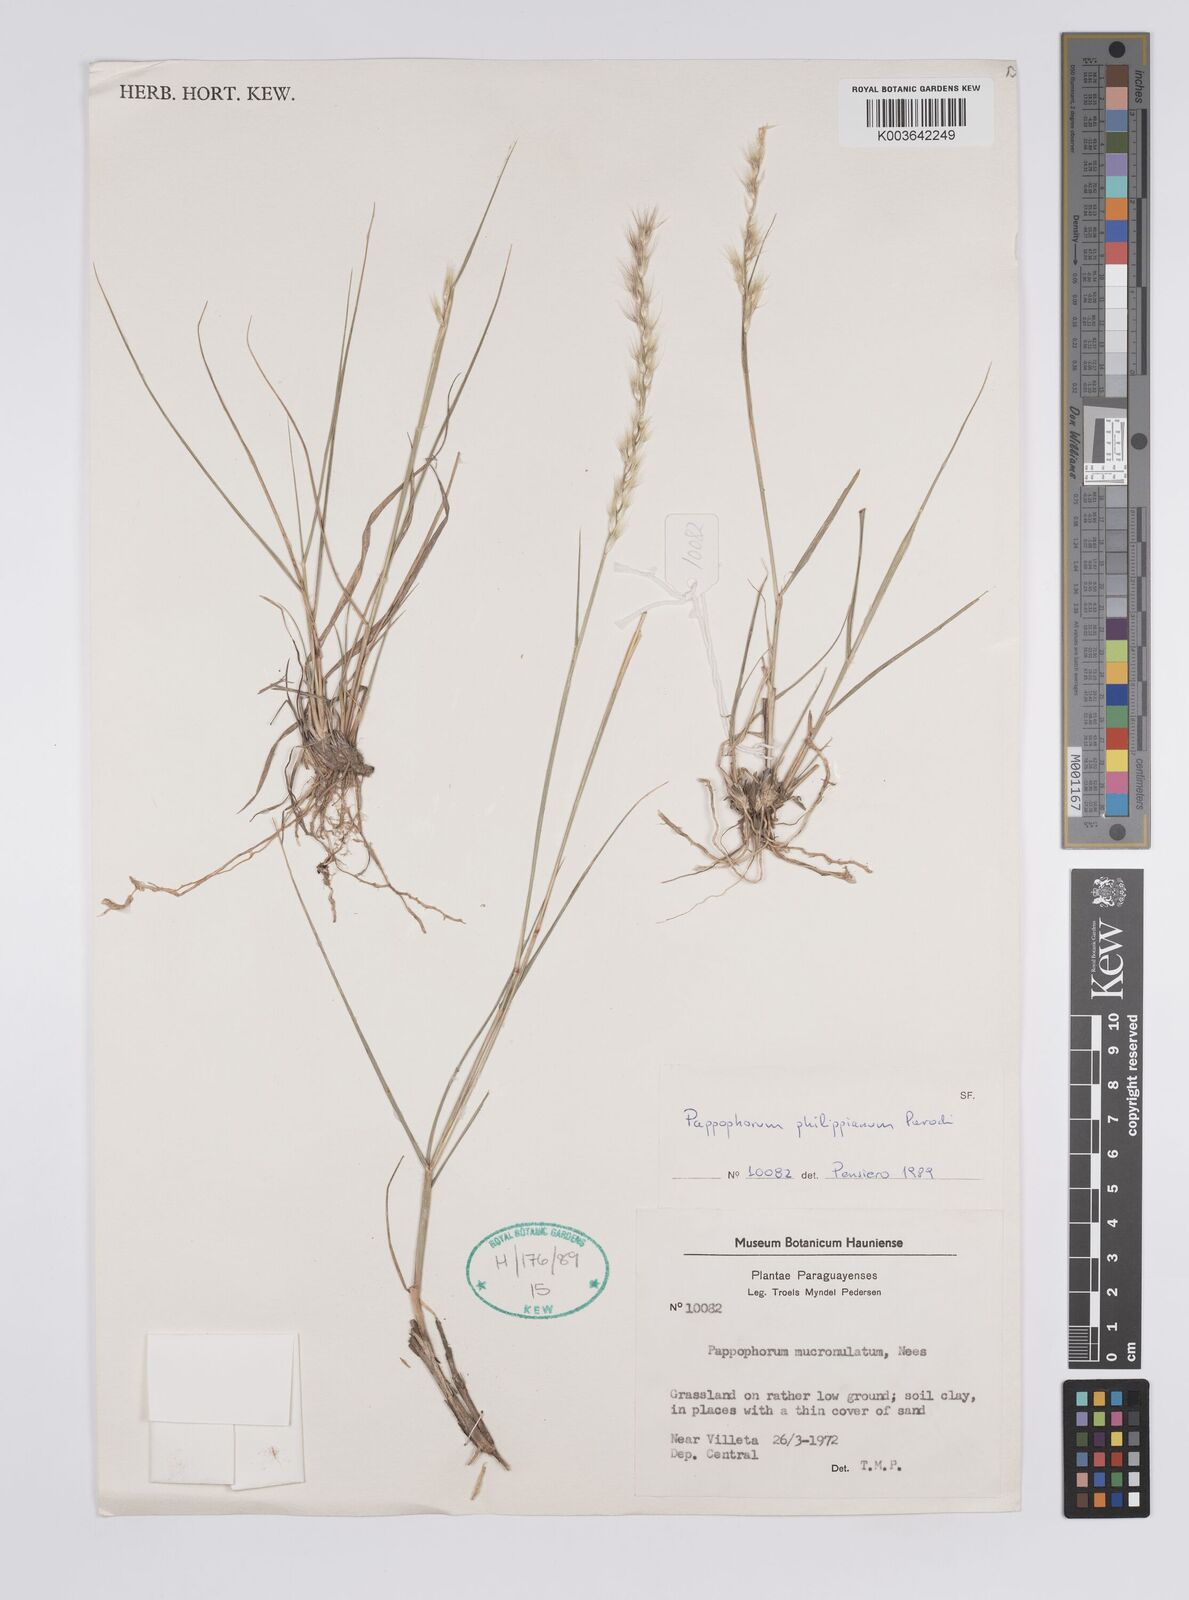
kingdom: Plantae
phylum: Tracheophyta
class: Liliopsida
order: Poales
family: Poaceae
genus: Pappophorum
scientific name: Pappophorum philippianum
